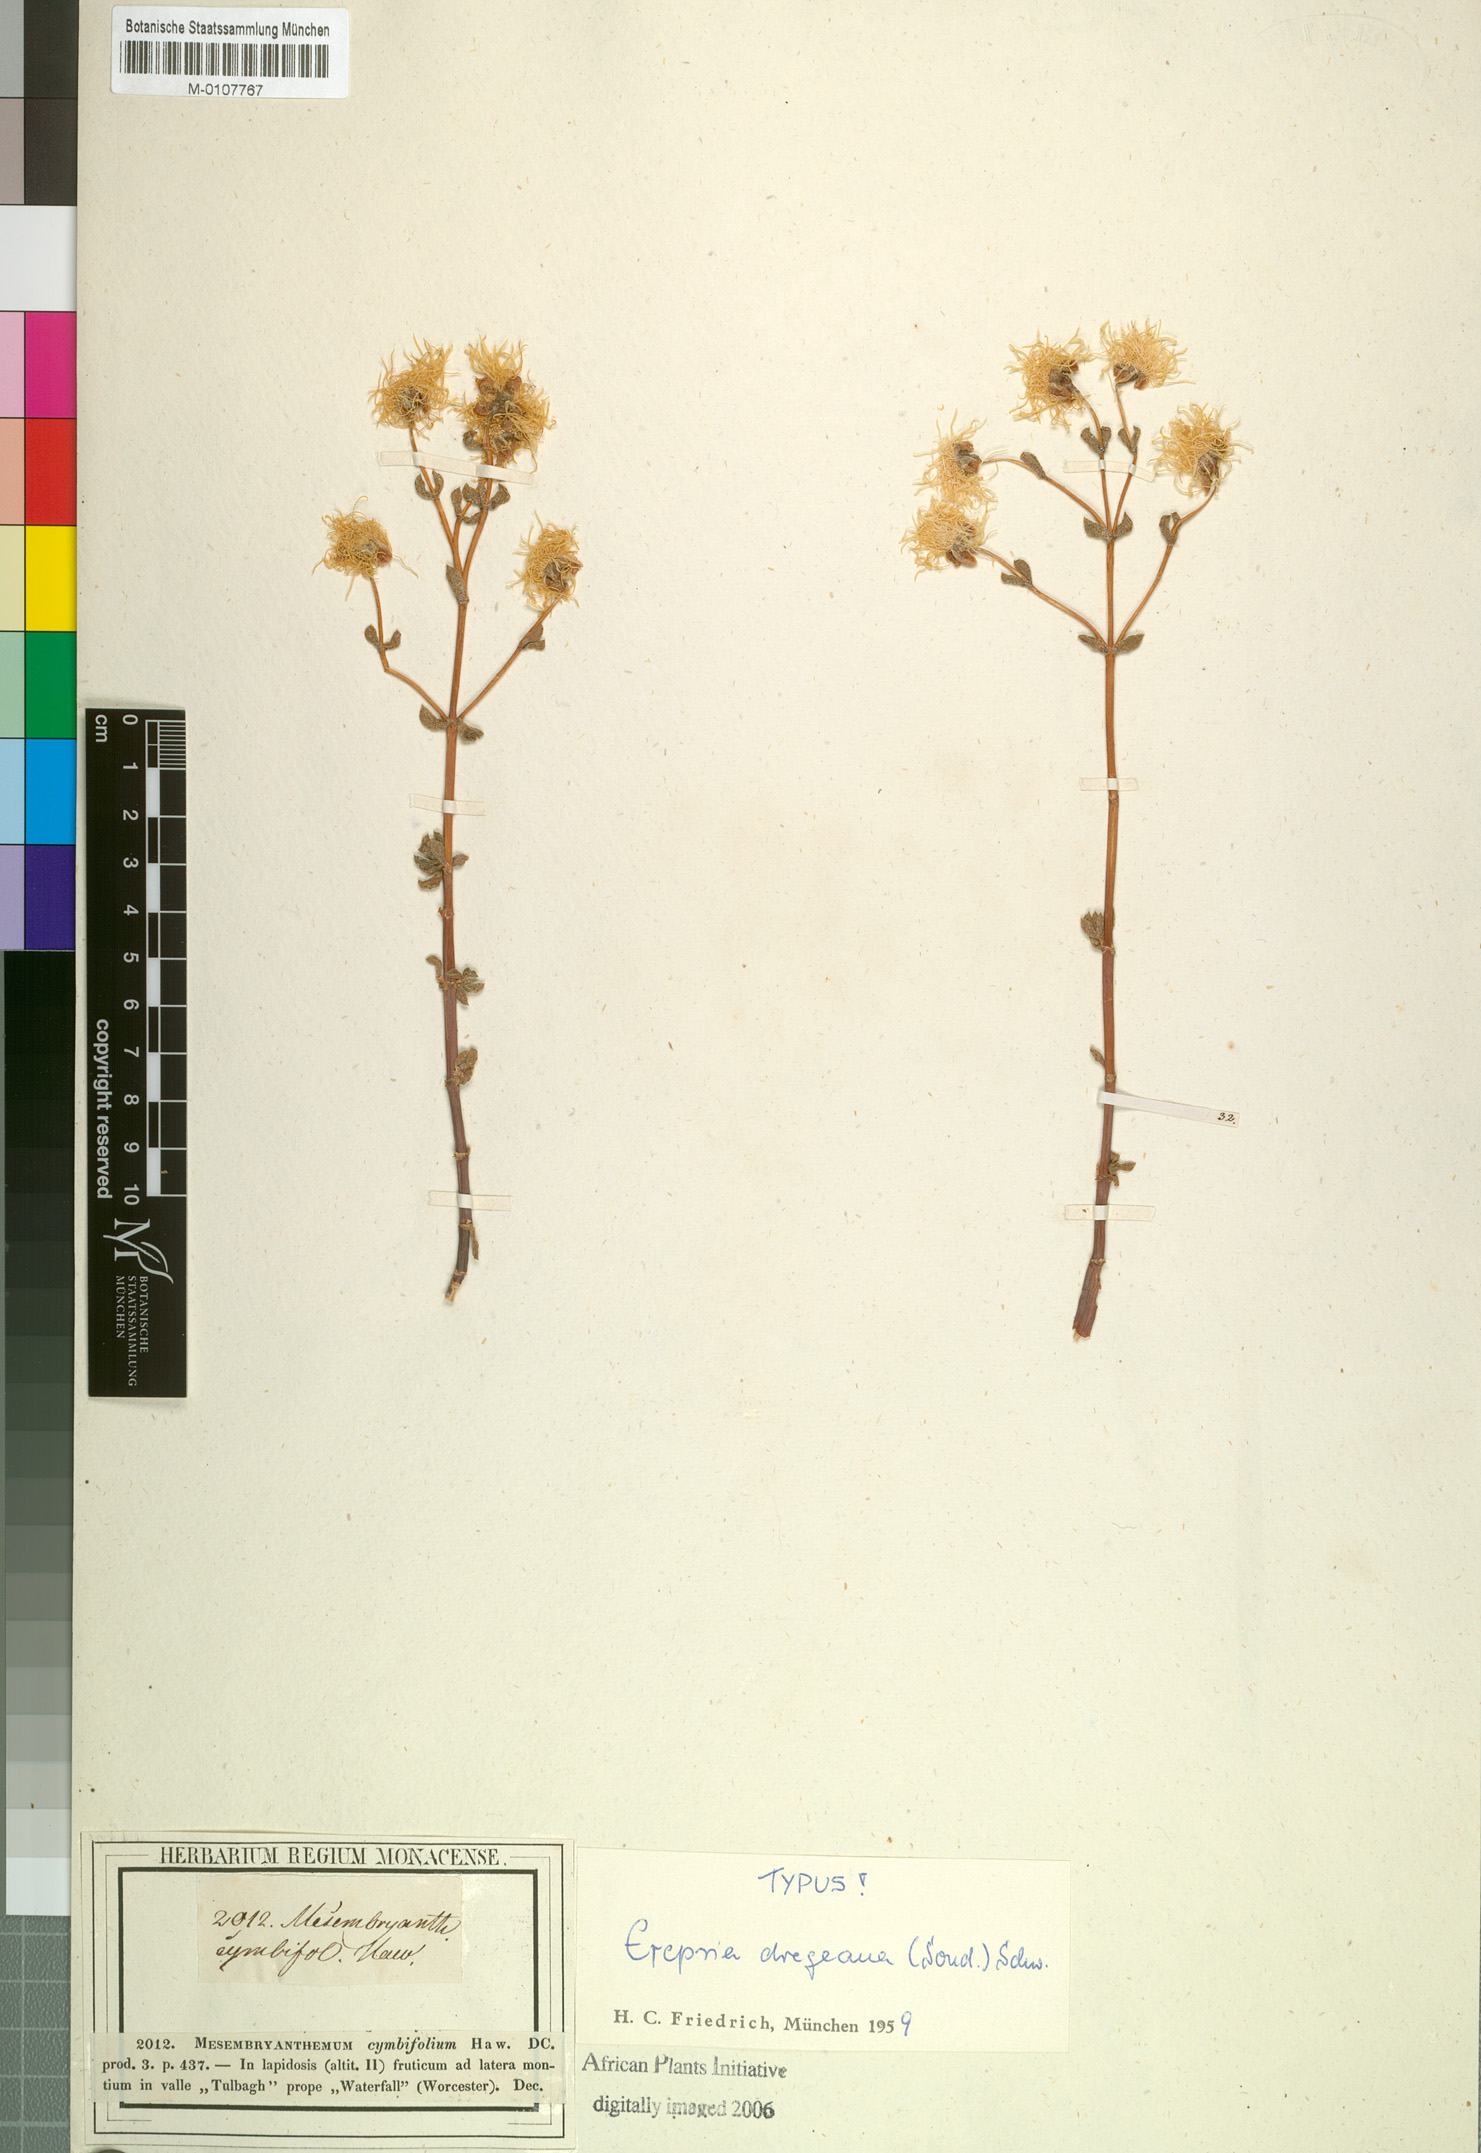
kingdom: Plantae
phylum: Tracheophyta
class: Magnoliopsida
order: Caryophyllales
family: Aizoaceae
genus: Lampranthus
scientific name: Lampranthus dregeanus
